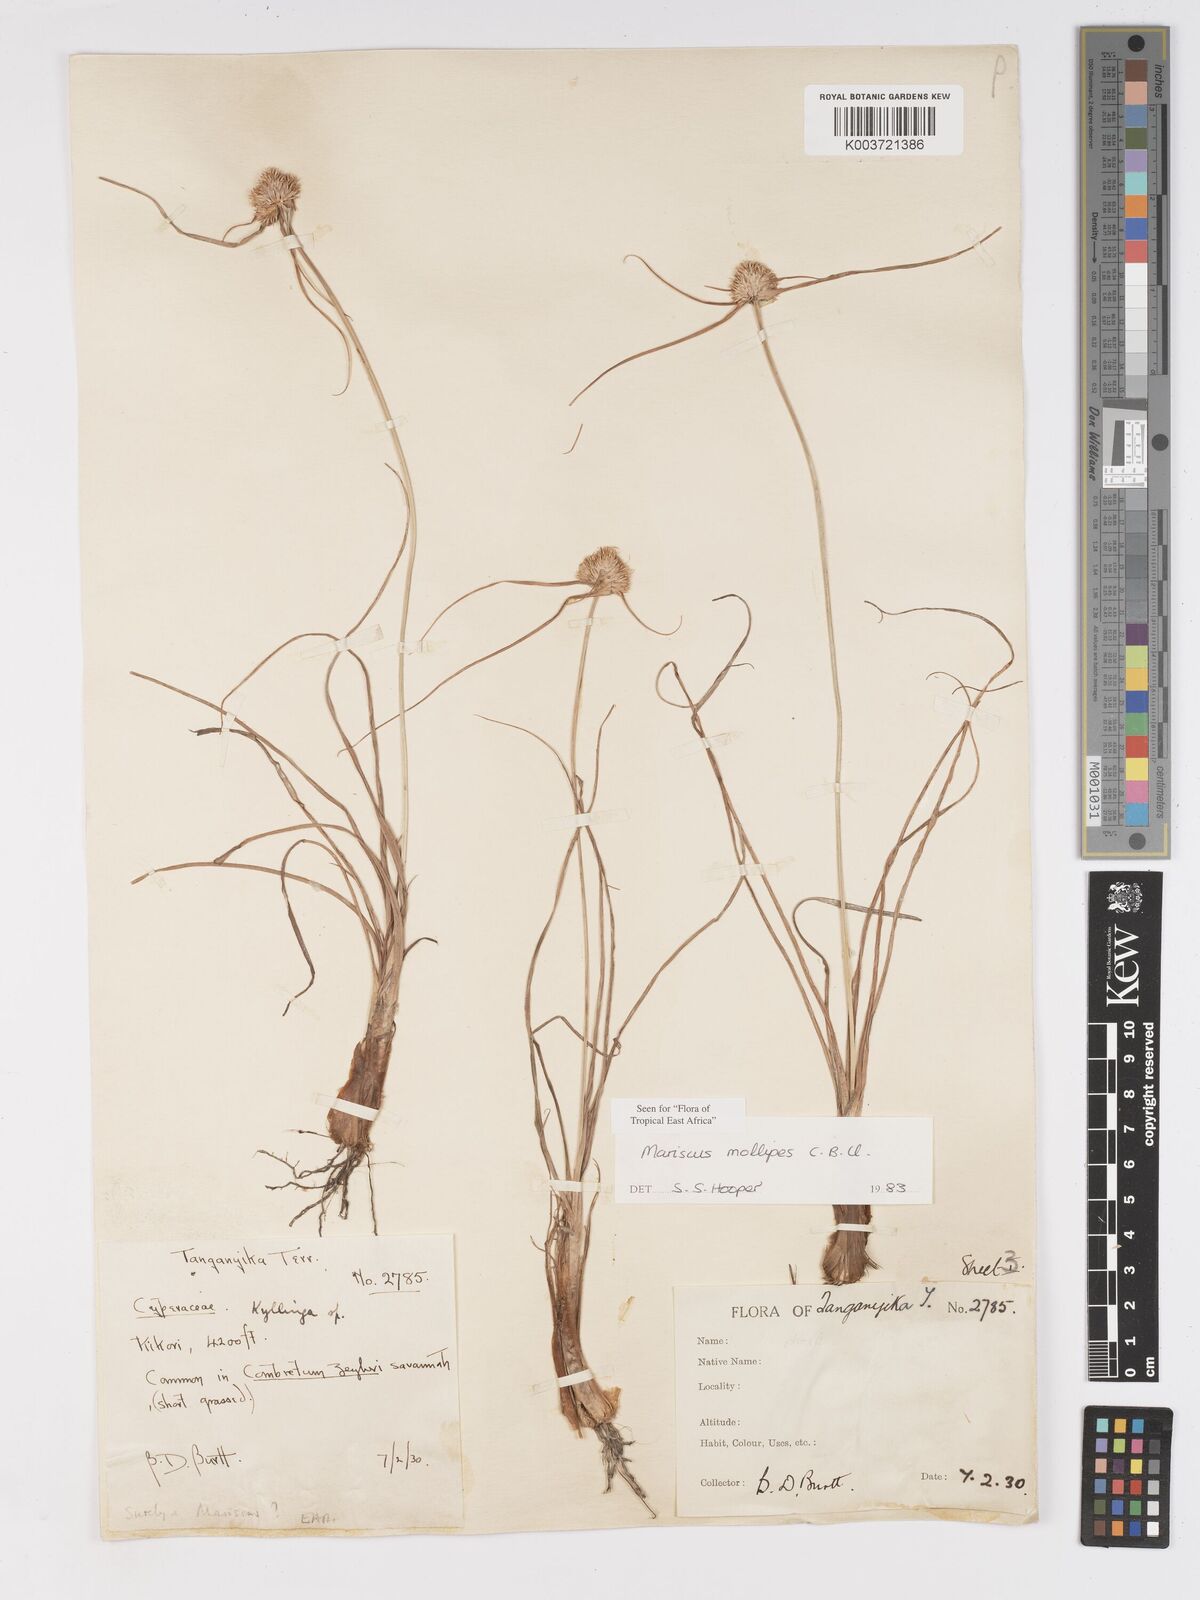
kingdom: Plantae
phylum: Tracheophyta
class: Liliopsida
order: Poales
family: Cyperaceae
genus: Cyperus
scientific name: Cyperus mollipes
